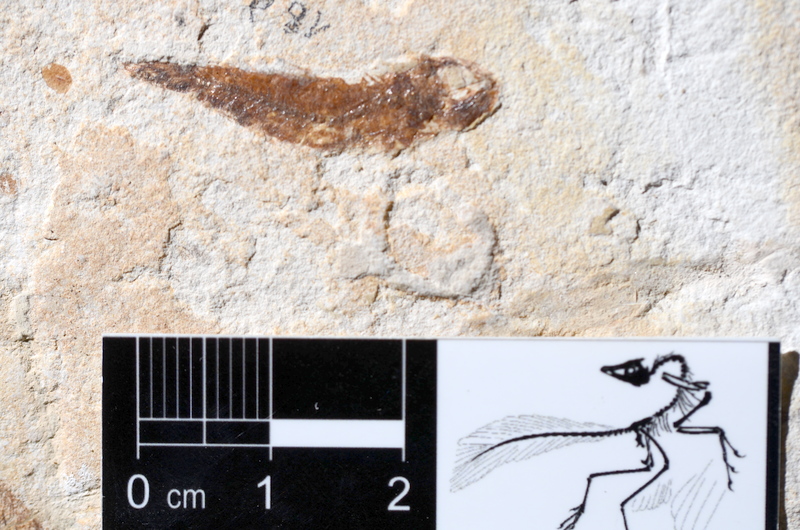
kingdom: Animalia
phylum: Chordata
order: Clupeiformes
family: Clupeidae
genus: Clupea
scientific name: Clupea harengus
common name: Herring
